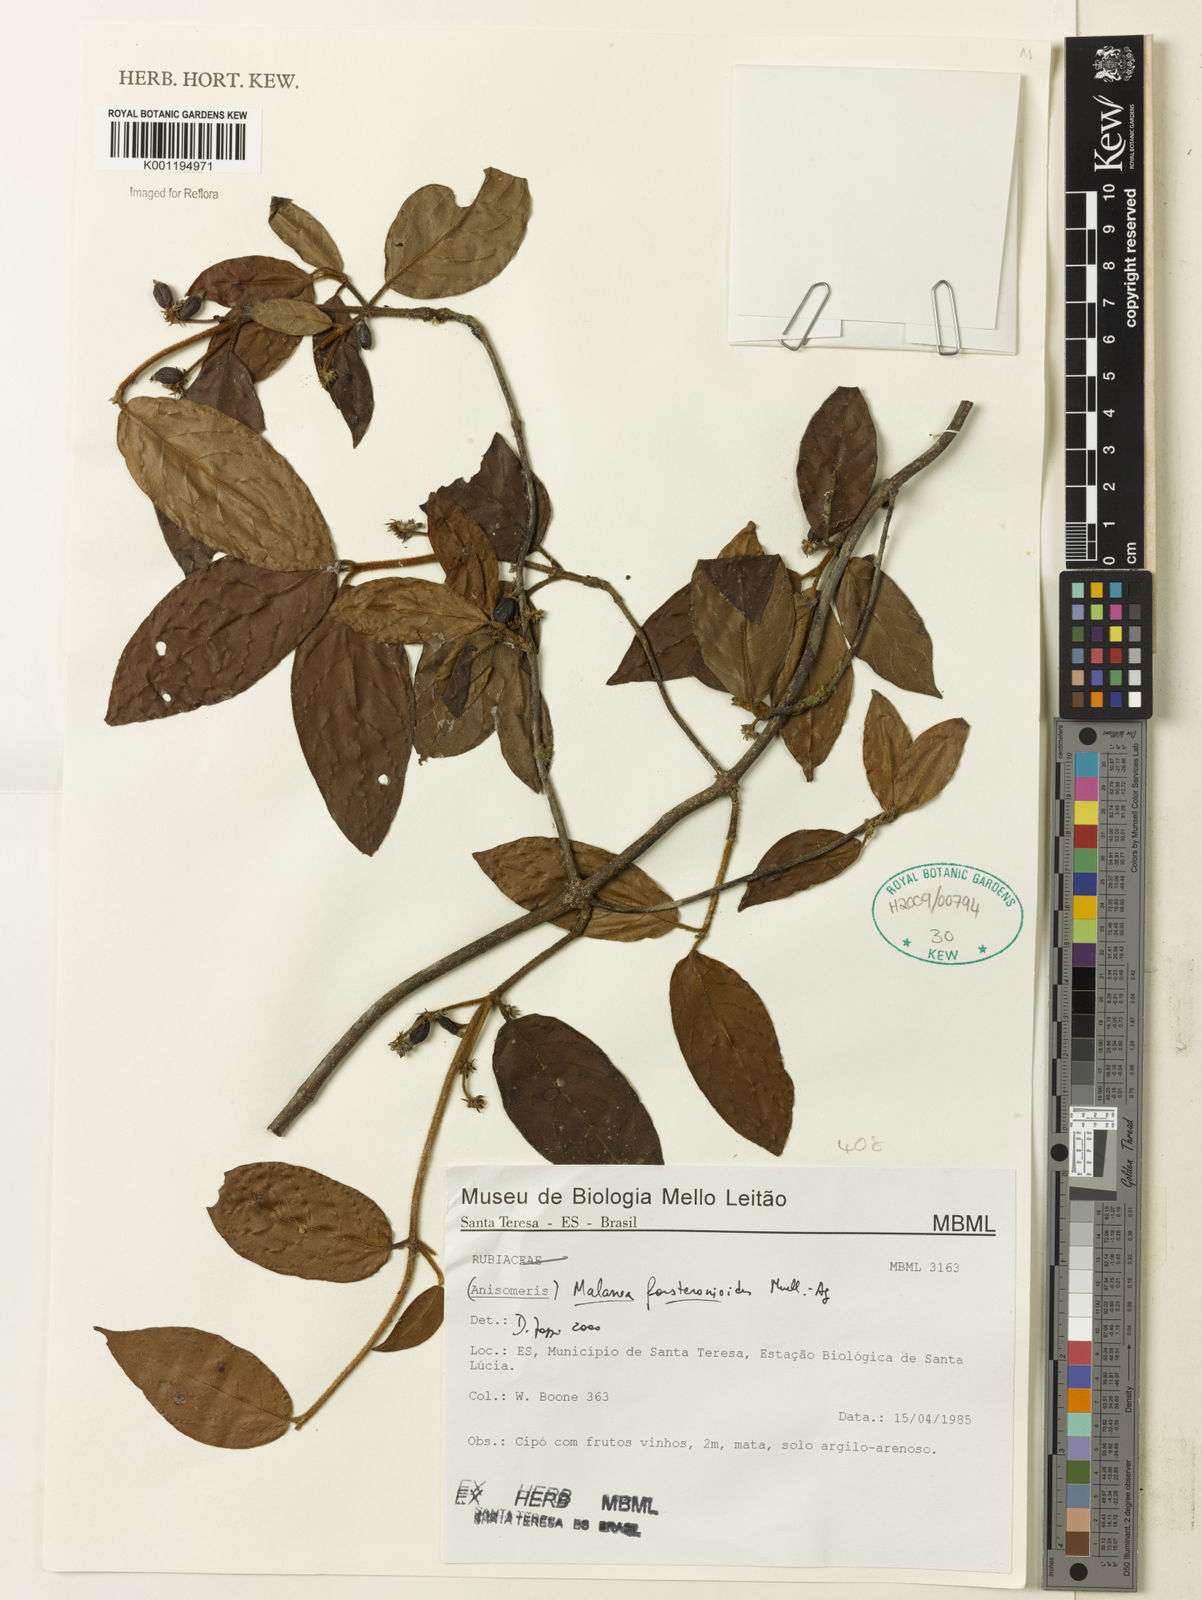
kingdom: Plantae
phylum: Tracheophyta
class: Magnoliopsida
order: Gentianales
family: Rubiaceae
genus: Malanea
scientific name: Malanea
